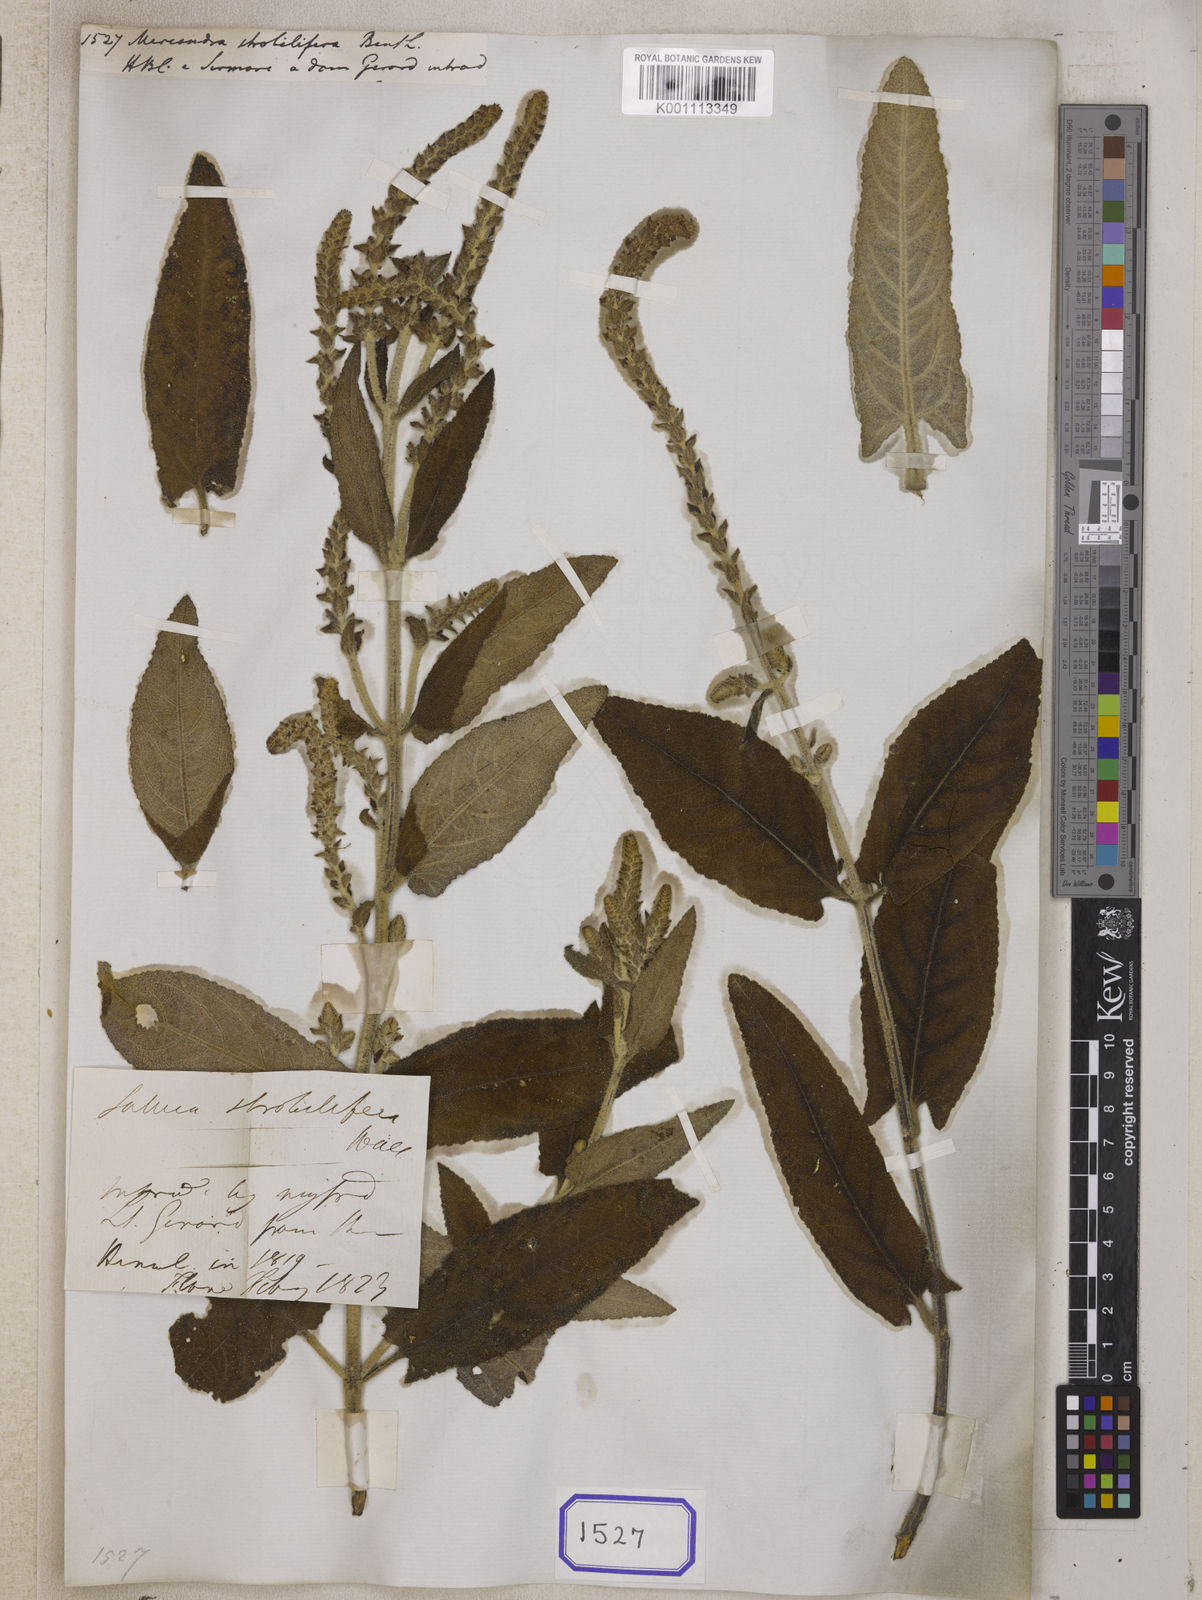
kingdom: Plantae
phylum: Tracheophyta
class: Magnoliopsida
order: Lamiales
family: Lamiaceae
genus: Salvia
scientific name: Salvia strobilifera
